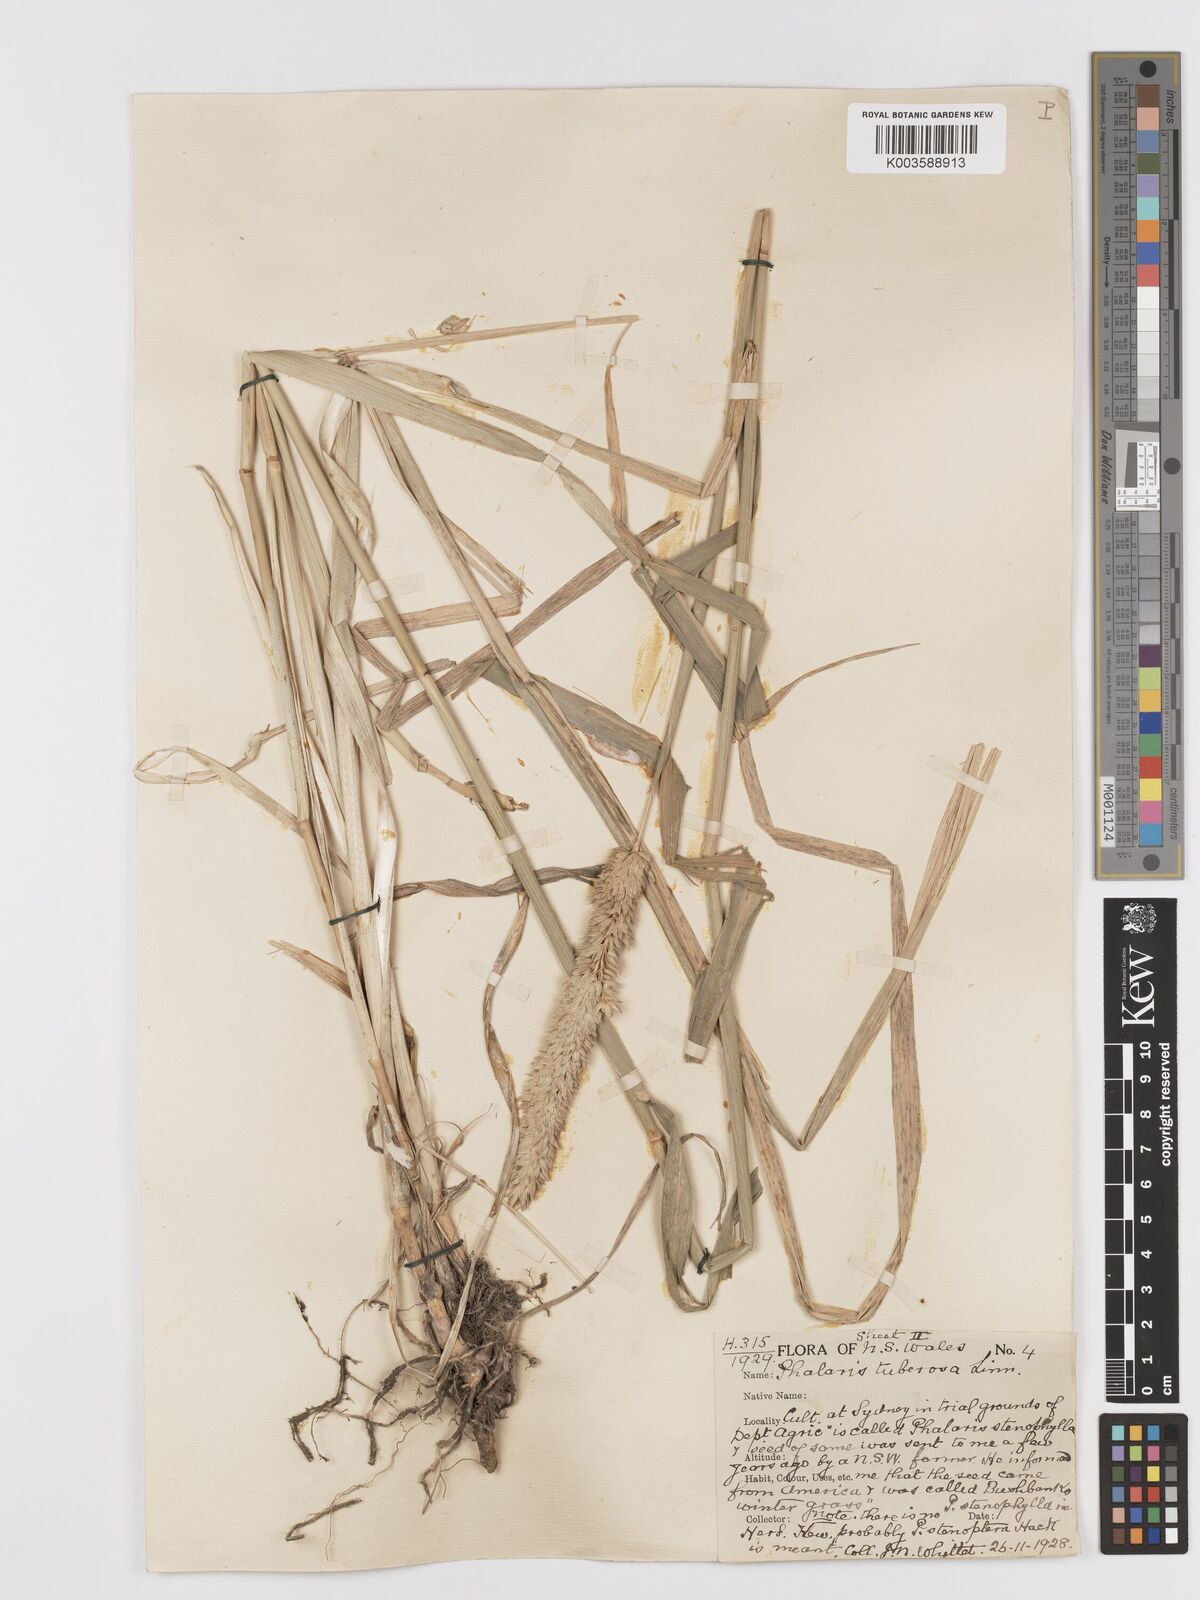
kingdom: Plantae
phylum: Tracheophyta
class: Liliopsida
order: Poales
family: Poaceae
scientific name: Poaceae
